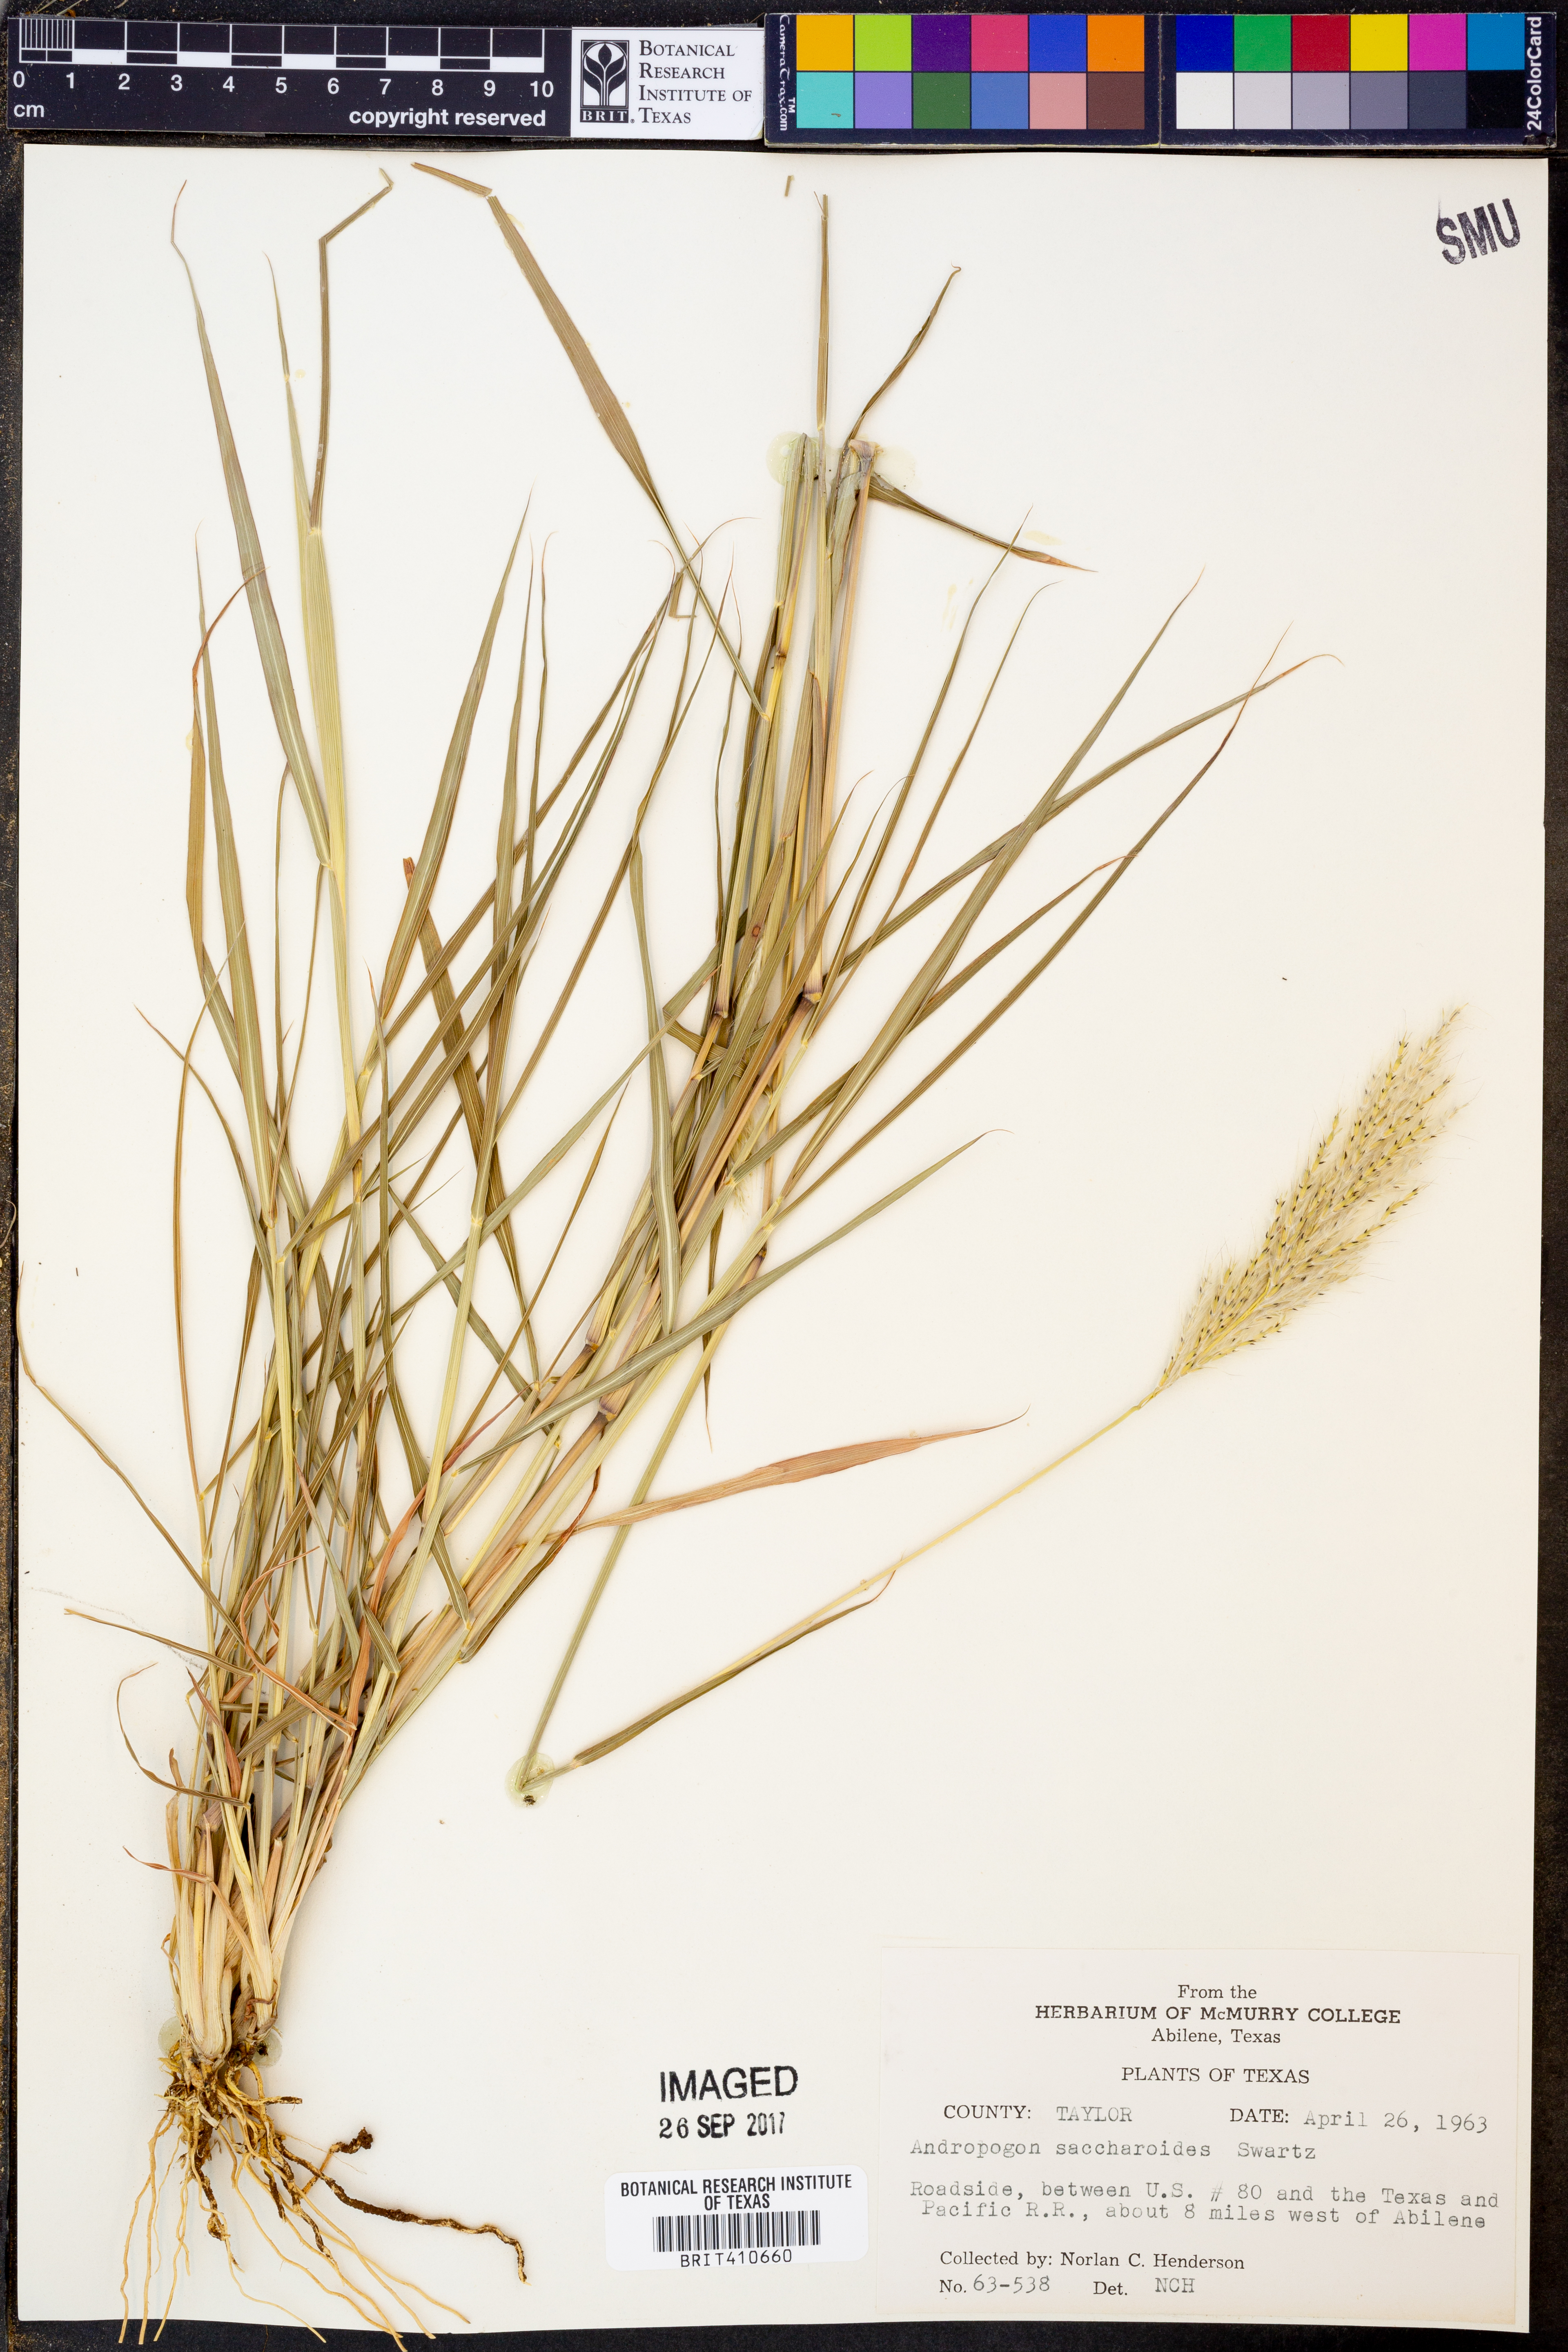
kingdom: Plantae
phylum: Tracheophyta
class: Liliopsida
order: Poales
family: Poaceae
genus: Bothriochloa
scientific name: Bothriochloa saccharoides
